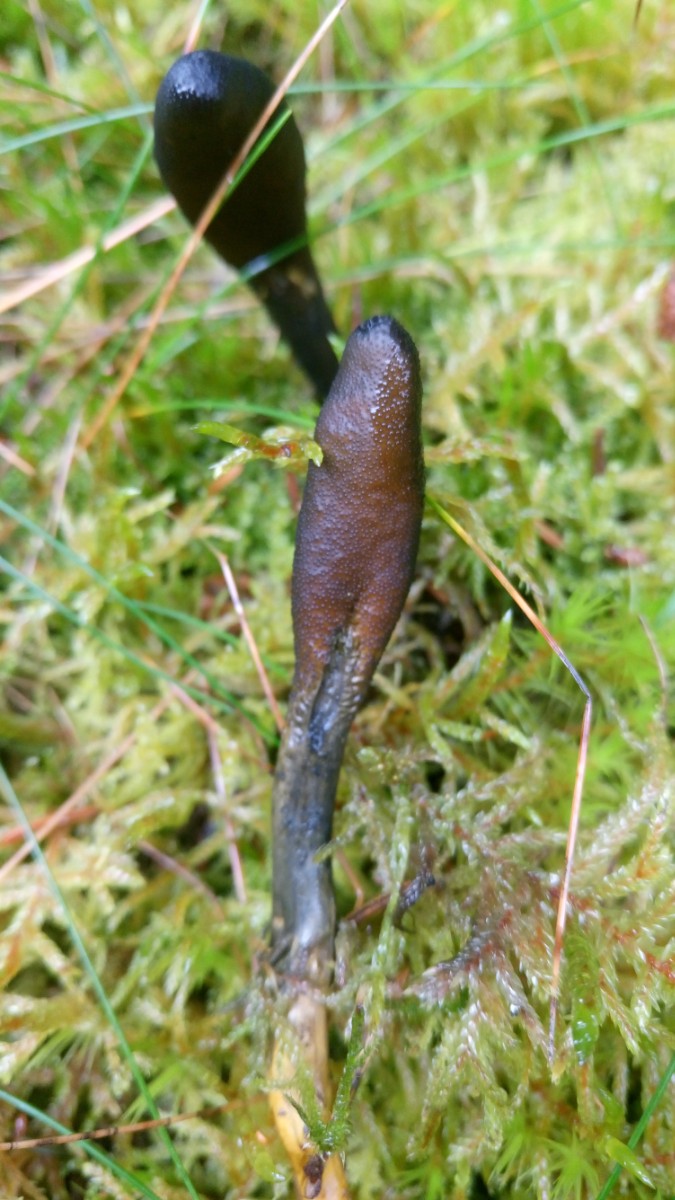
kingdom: Fungi
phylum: Ascomycota
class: Sordariomycetes
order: Hypocreales
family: Ophiocordycipitaceae
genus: Tolypocladium
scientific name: Tolypocladium ophioglossoides
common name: slank snyltekølle
